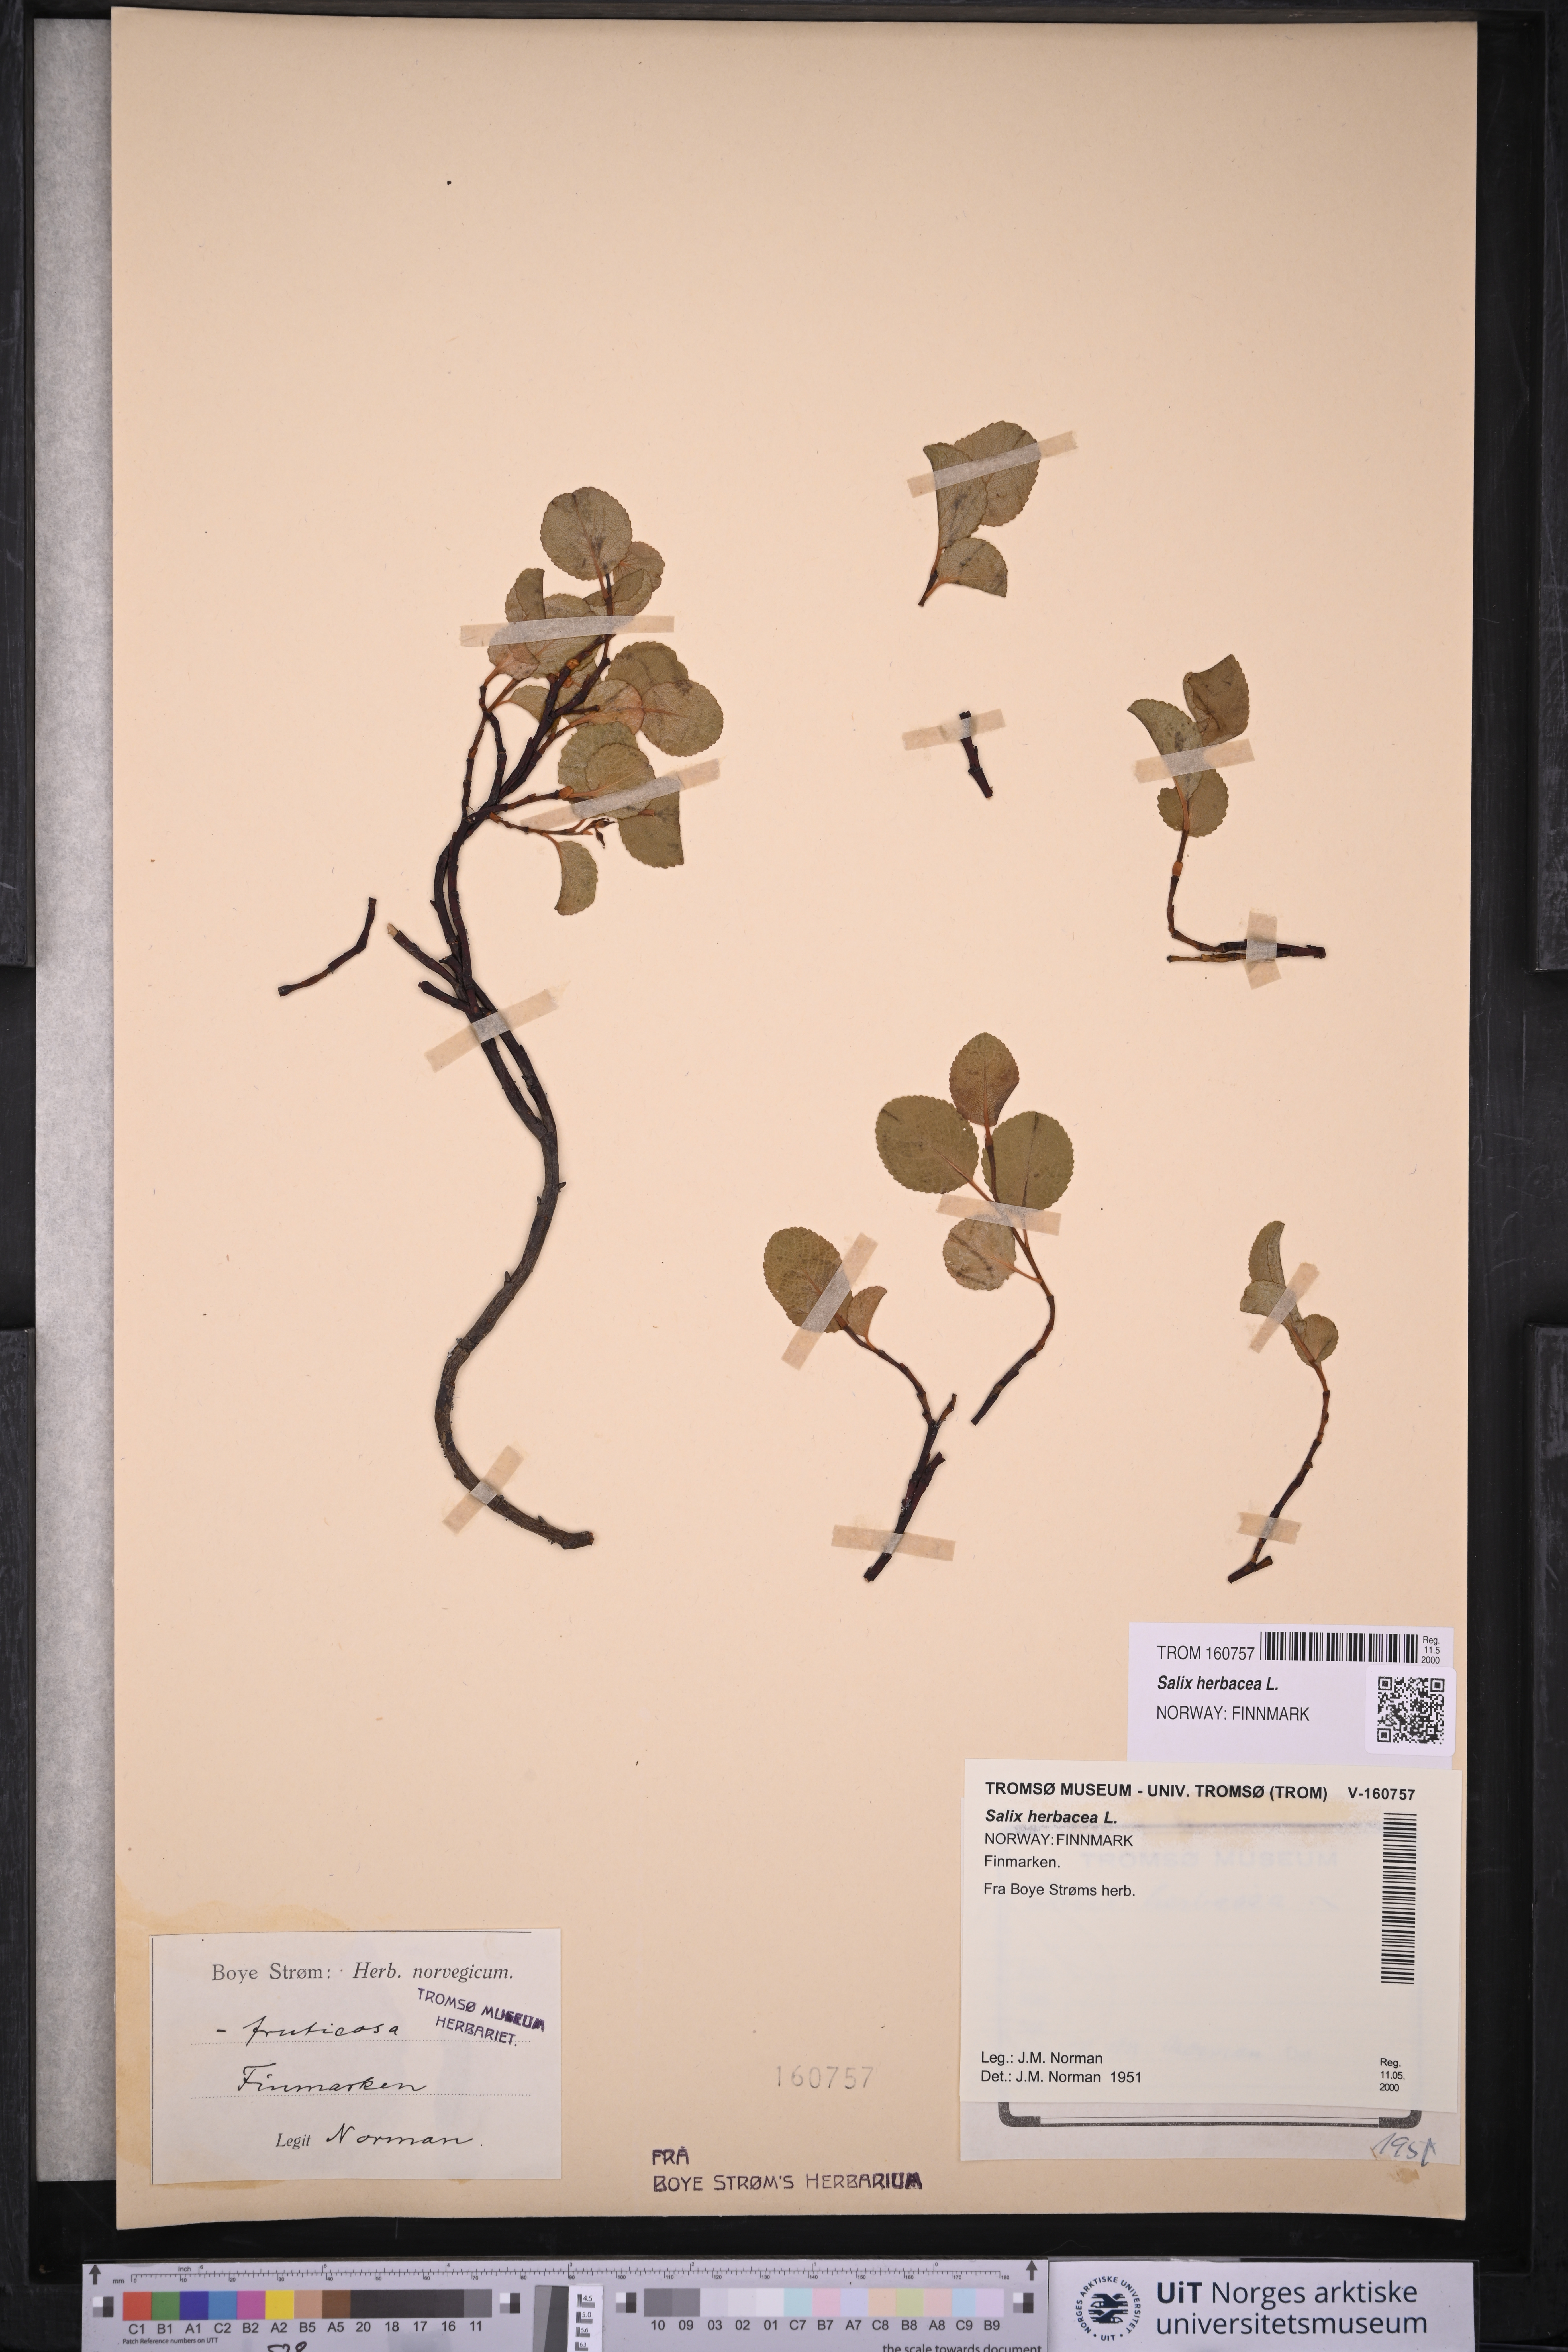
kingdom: Plantae
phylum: Tracheophyta
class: Magnoliopsida
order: Malpighiales
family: Salicaceae
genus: Salix
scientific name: Salix herbacea
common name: Dwarf willow
